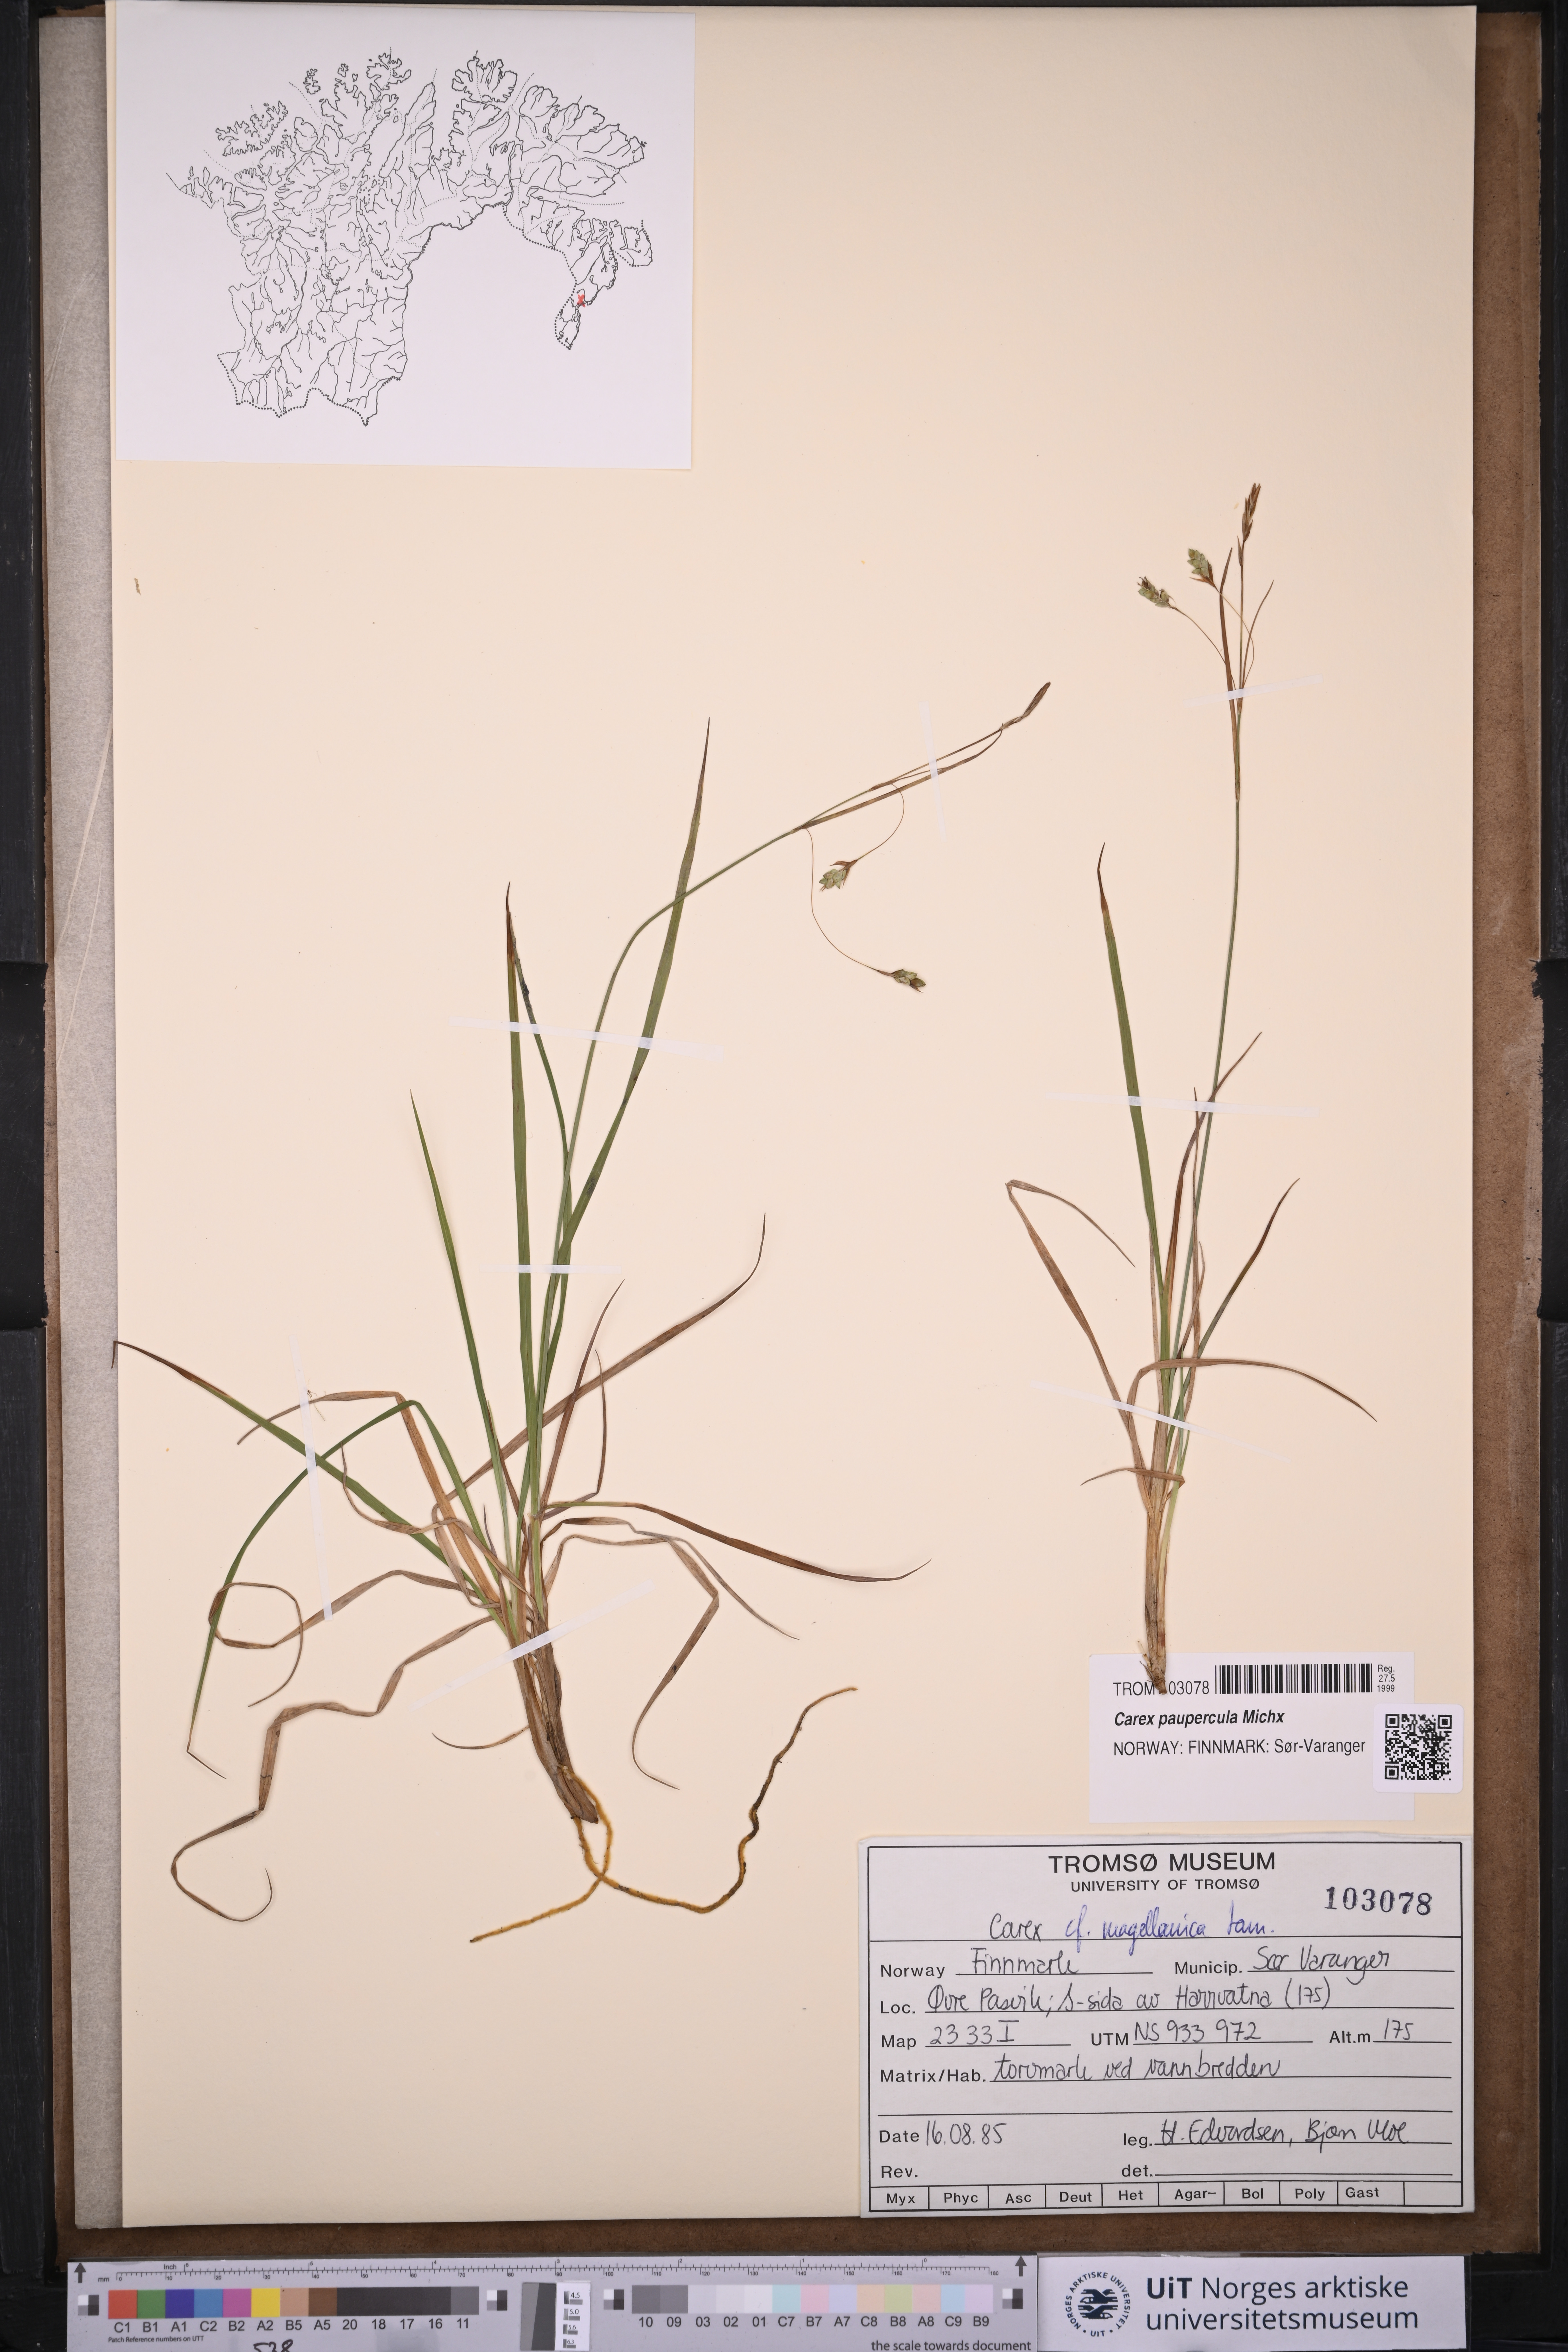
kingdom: Plantae
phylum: Tracheophyta
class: Liliopsida
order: Poales
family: Cyperaceae
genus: Carex
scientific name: Carex magellanica
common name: Bog sedge
